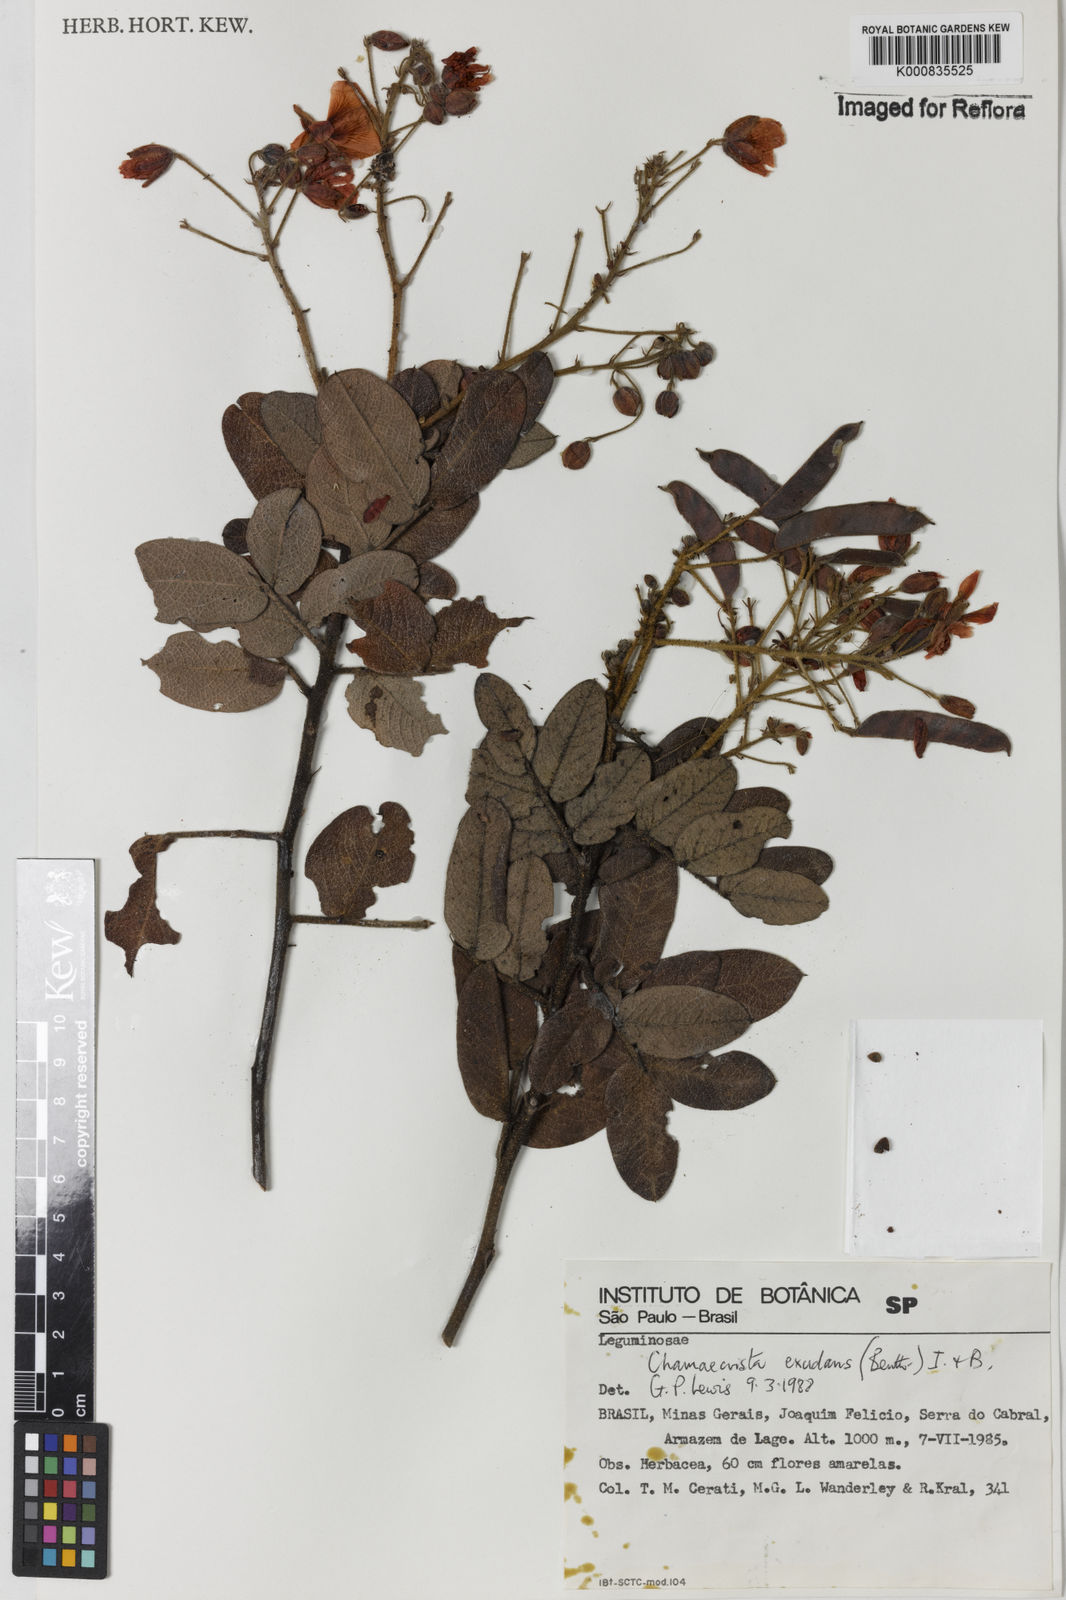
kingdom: Plantae
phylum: Tracheophyta
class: Magnoliopsida
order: Fabales
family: Fabaceae
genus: Chamaecrista
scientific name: Chamaecrista exsudans
